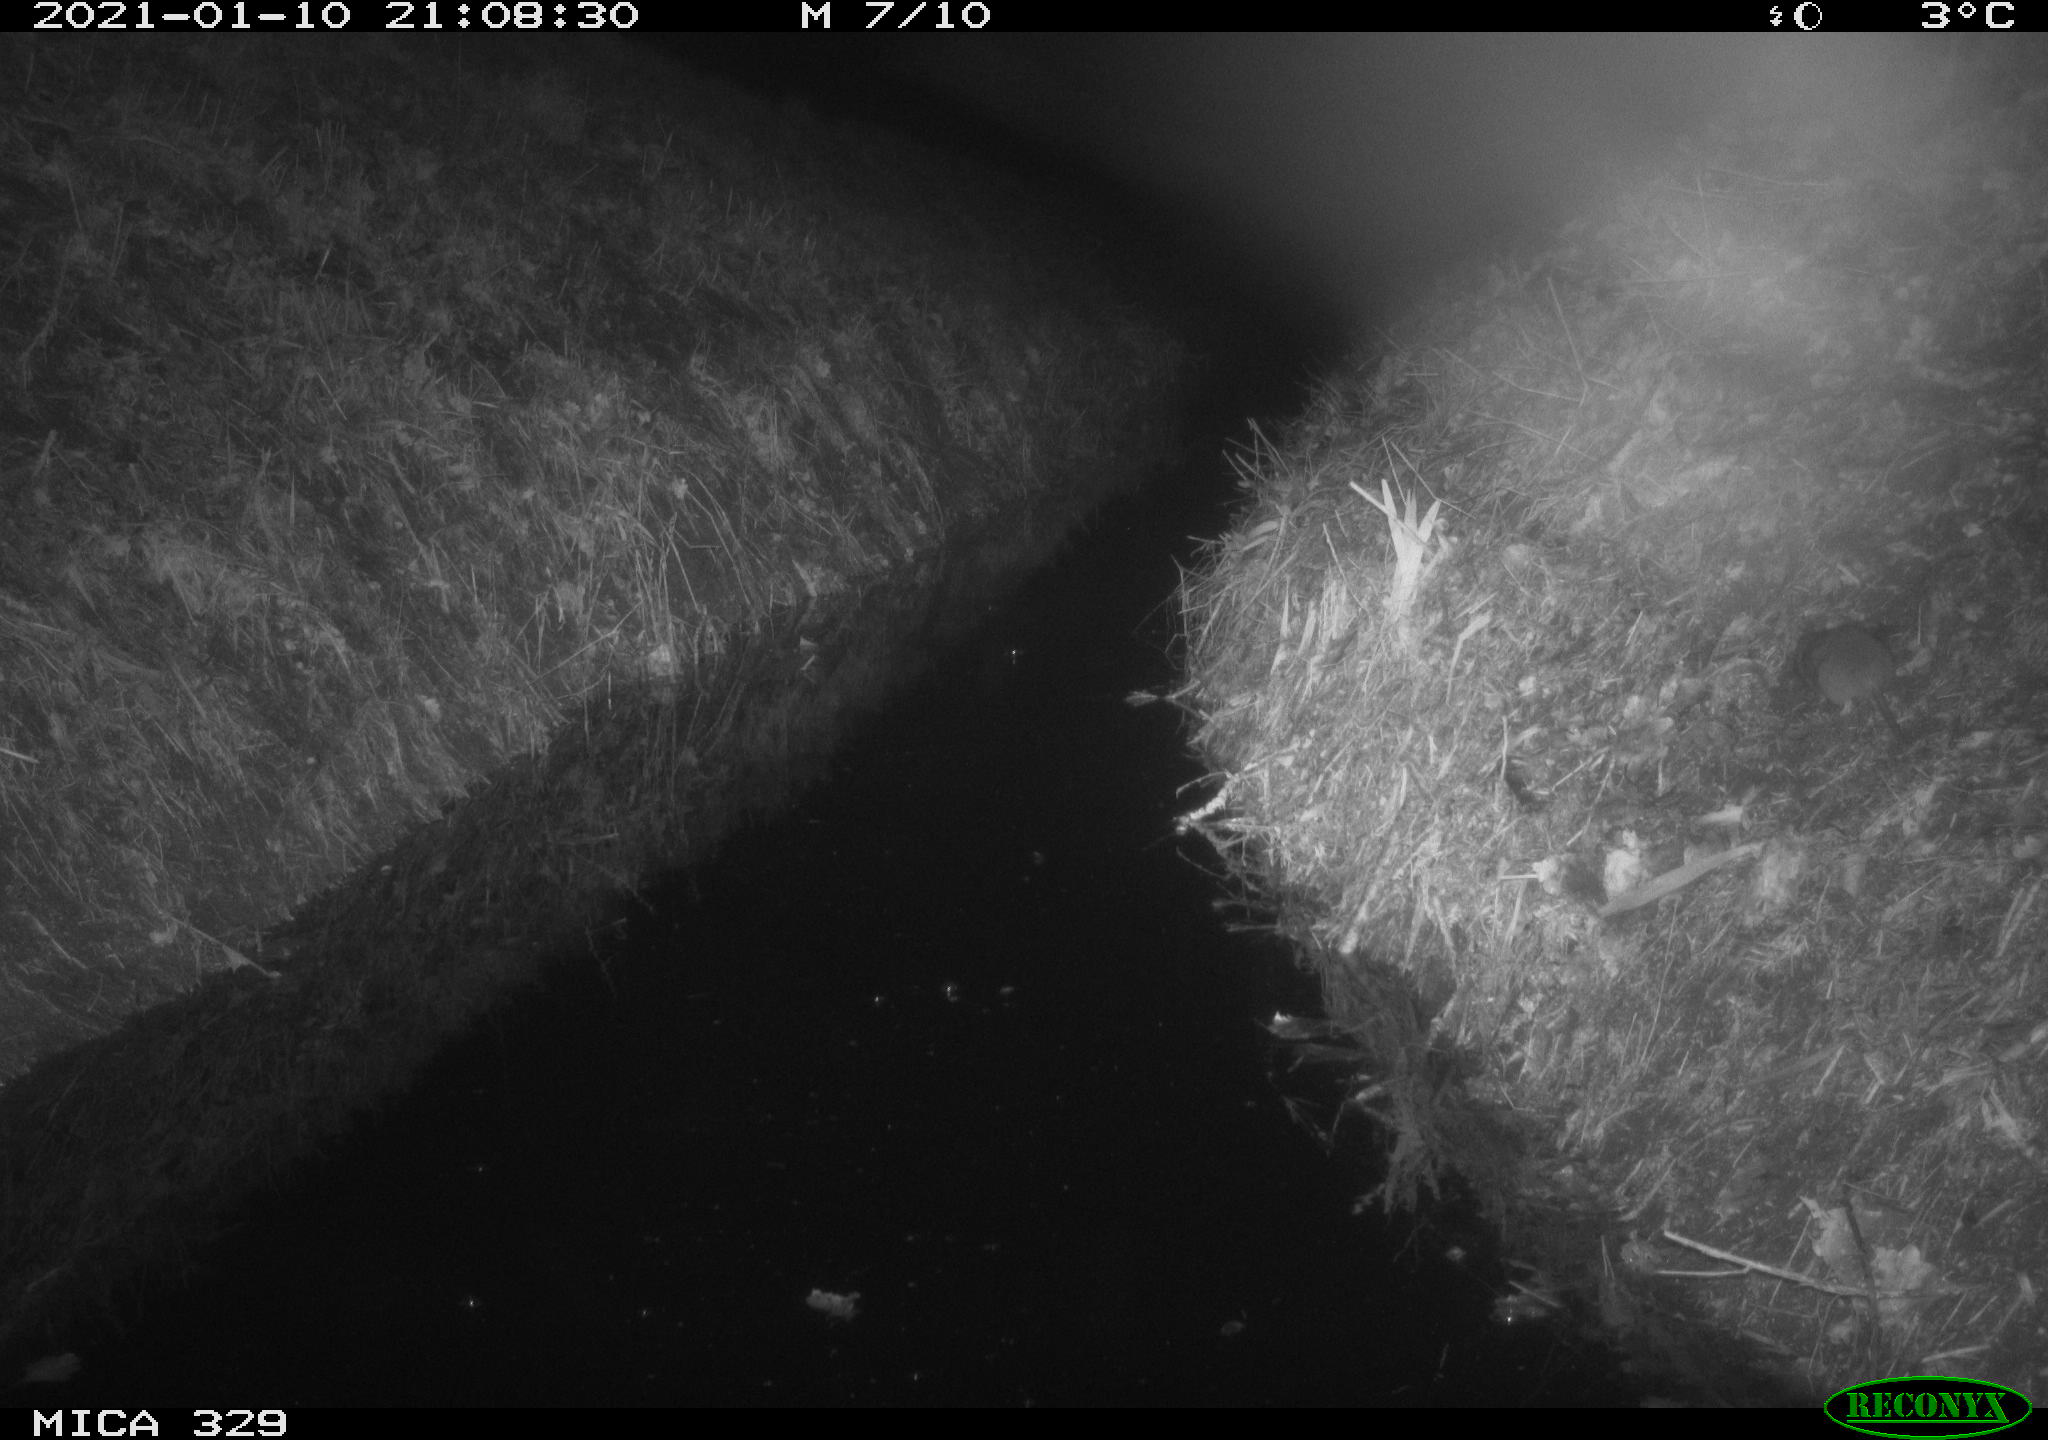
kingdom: Animalia
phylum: Chordata
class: Mammalia
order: Rodentia
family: Muridae
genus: Rattus
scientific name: Rattus norvegicus
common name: Brown rat
